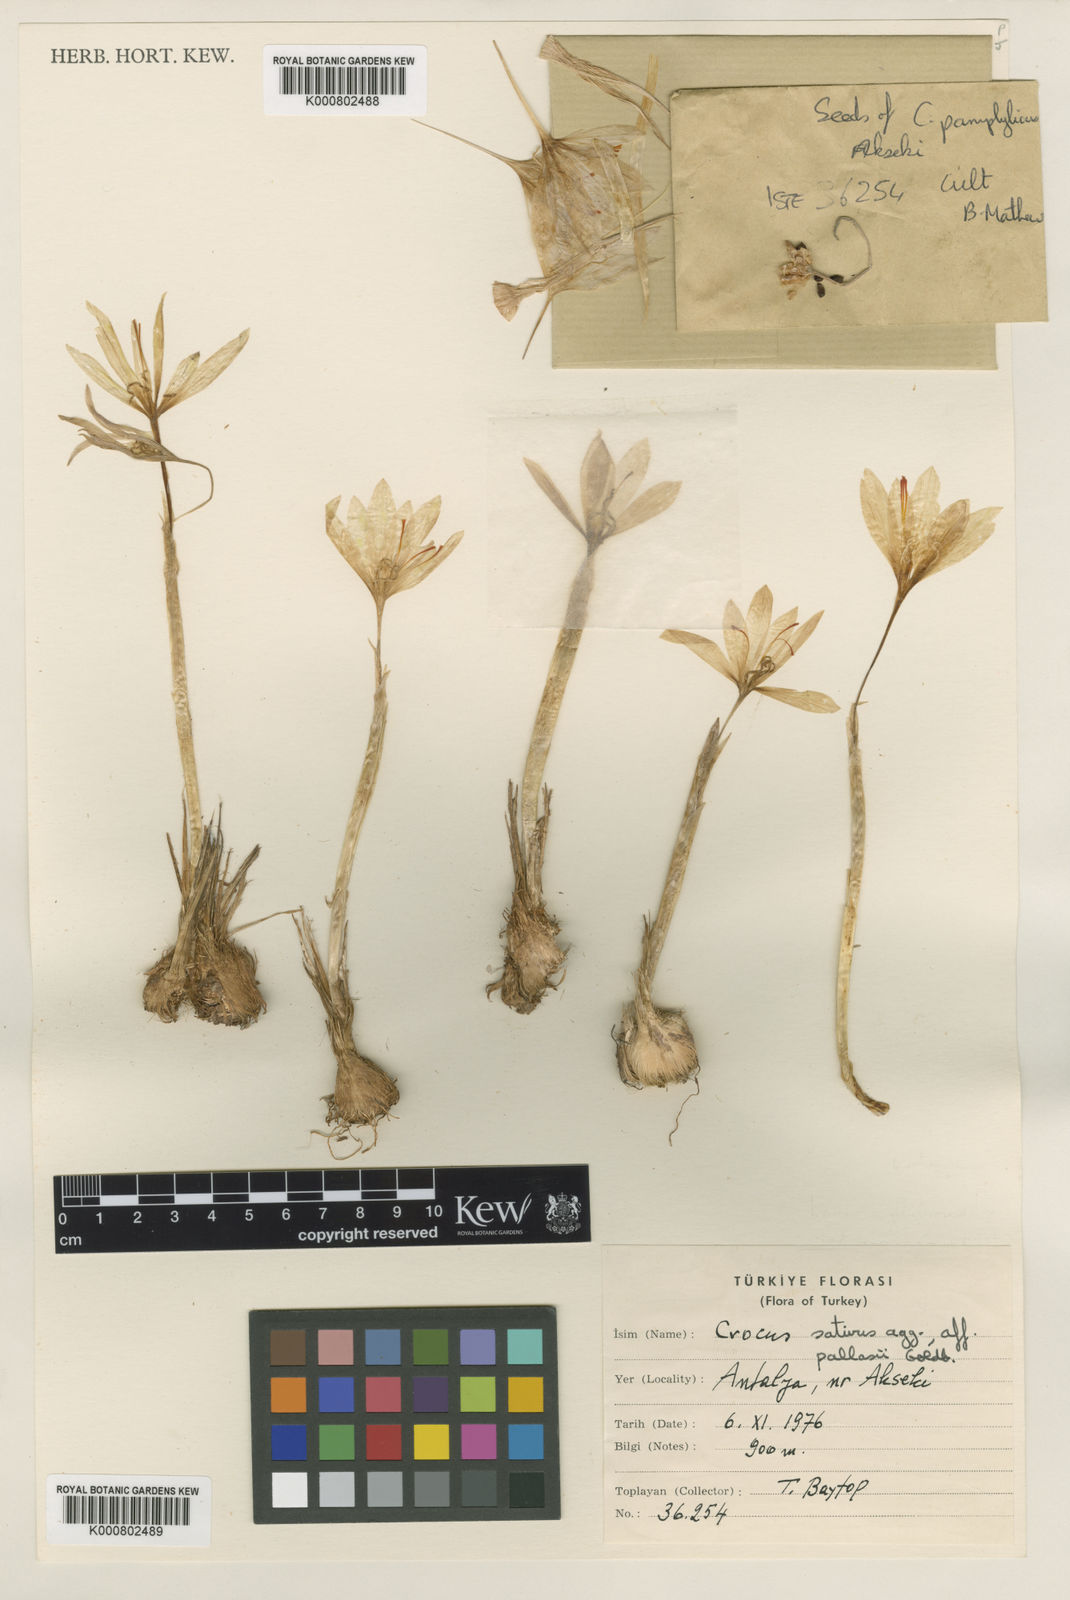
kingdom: Plantae
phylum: Tracheophyta
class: Liliopsida
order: Asparagales
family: Iridaceae
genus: Crocus
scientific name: Crocus asumaniae
